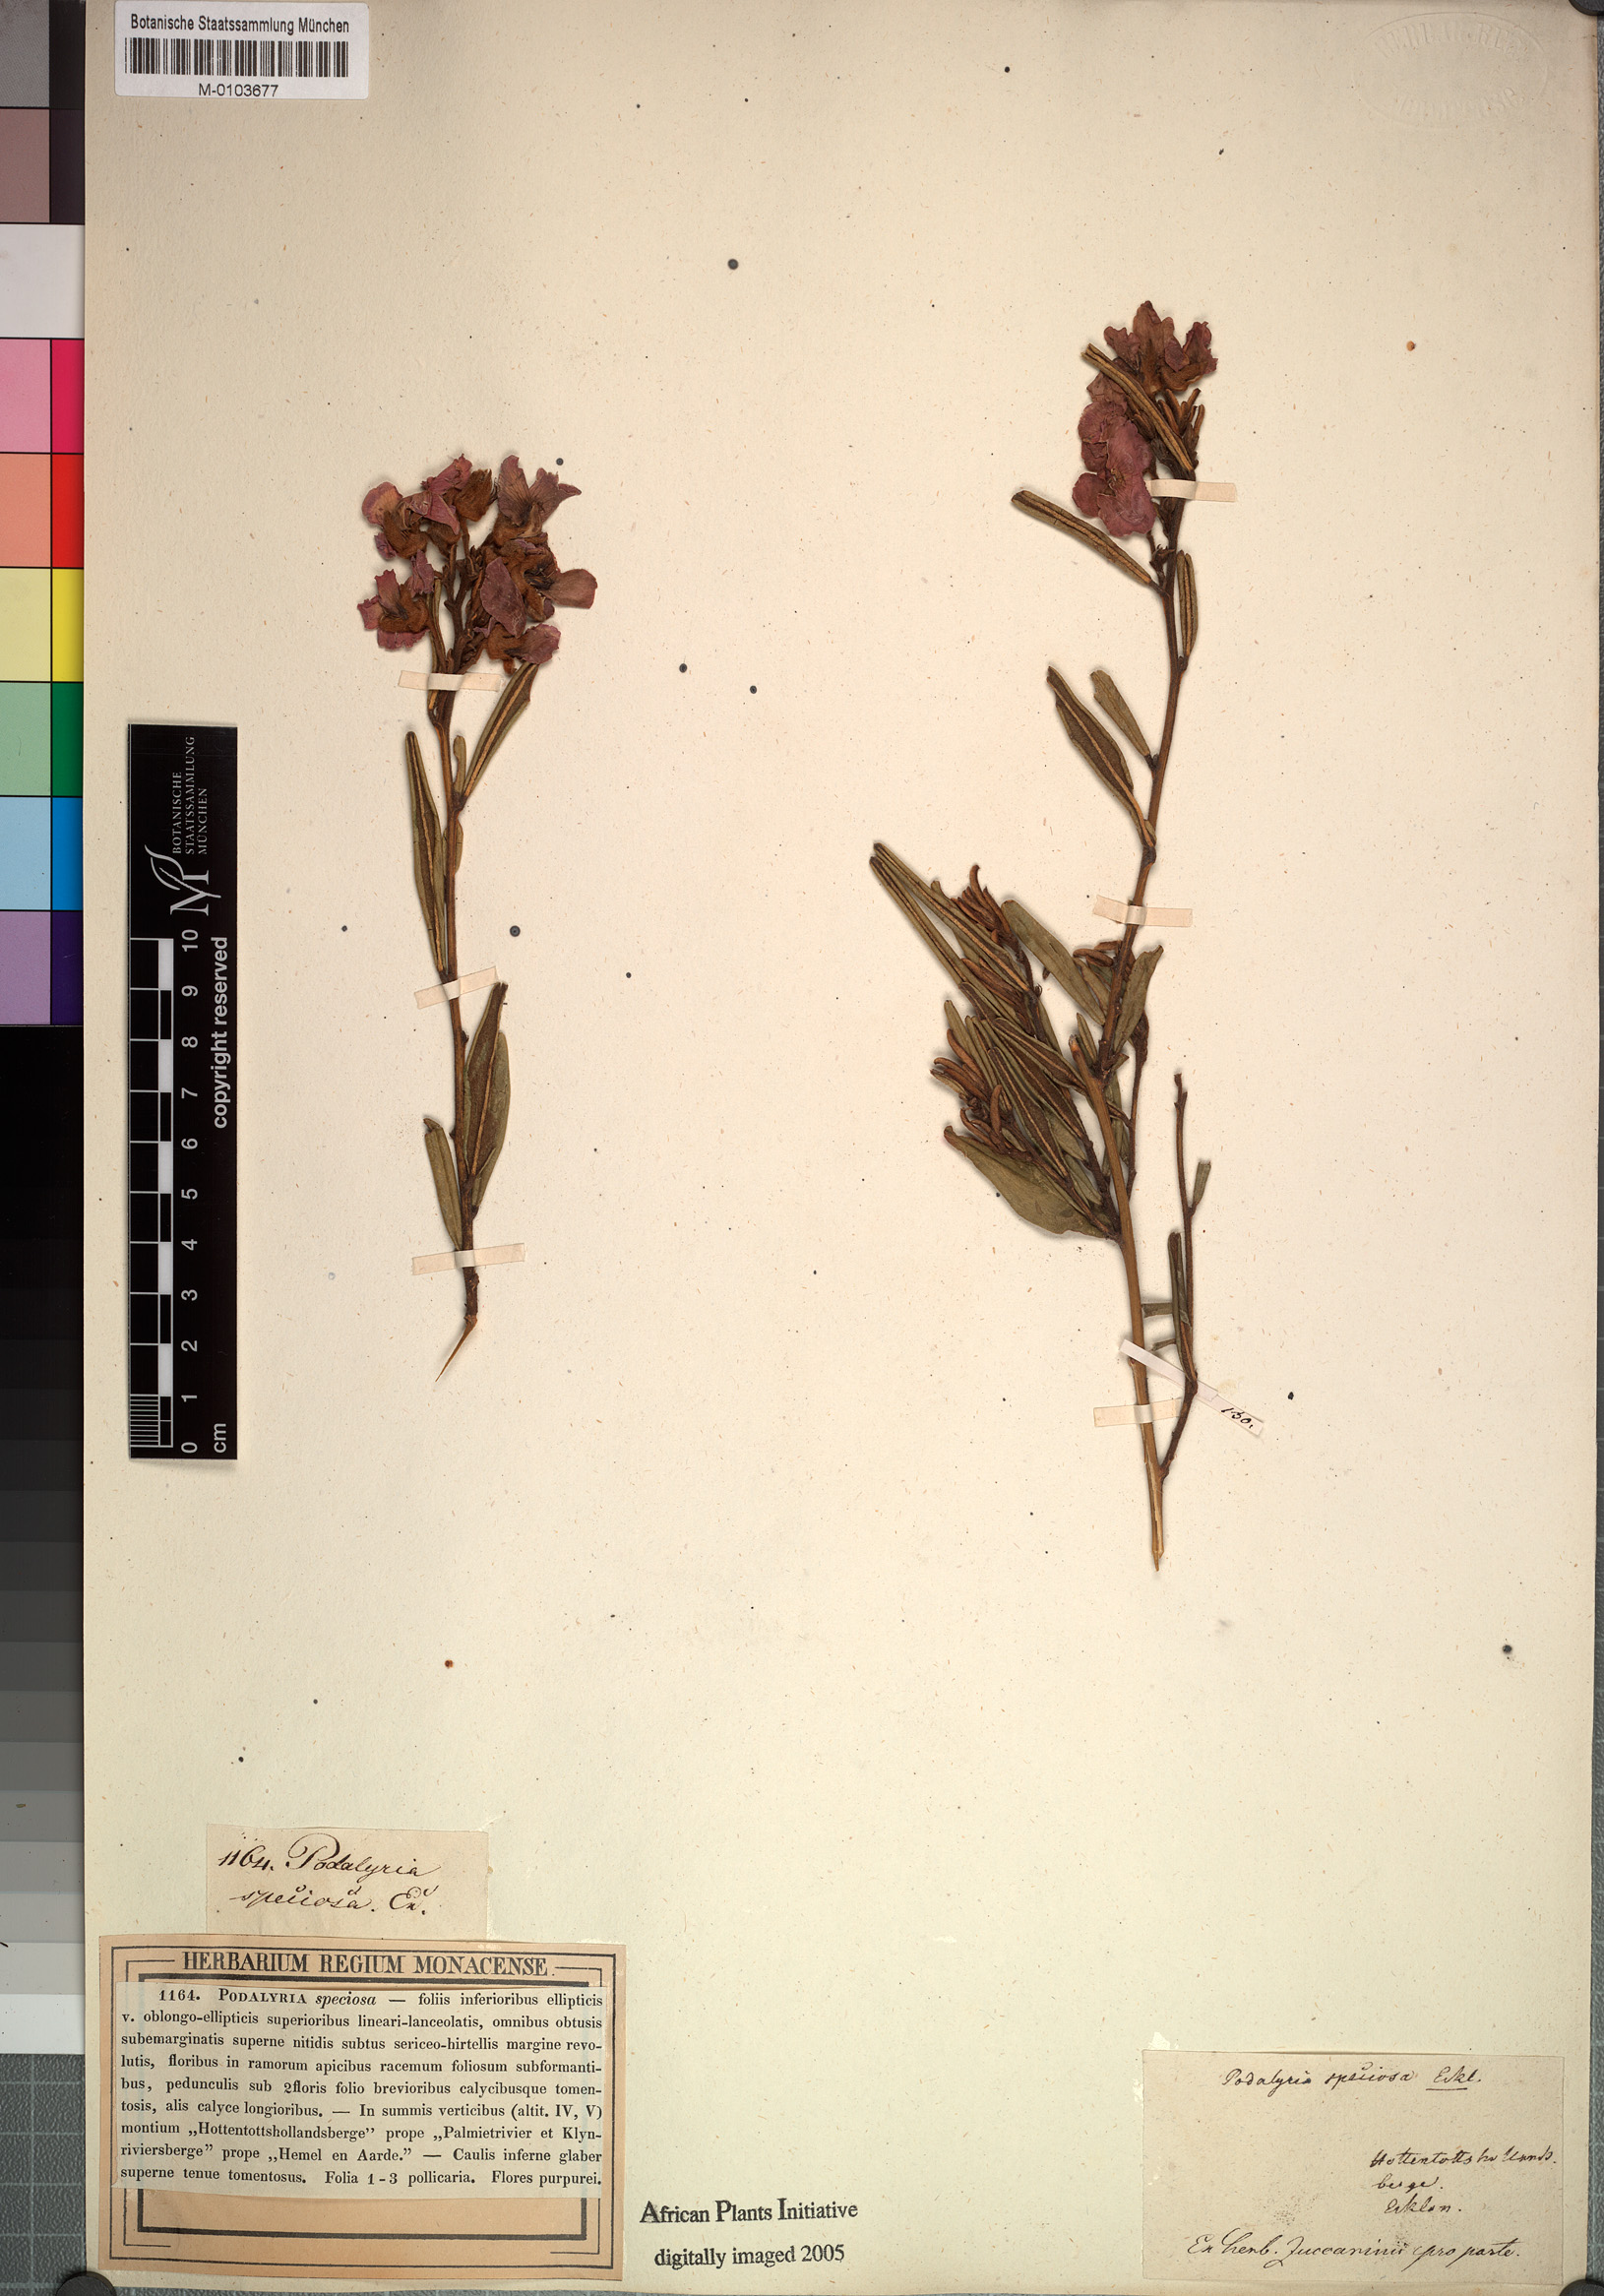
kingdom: Plantae
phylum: Tracheophyta
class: Magnoliopsida
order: Fabales
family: Fabaceae
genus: Podalyria
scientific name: Podalyria oleifolia
